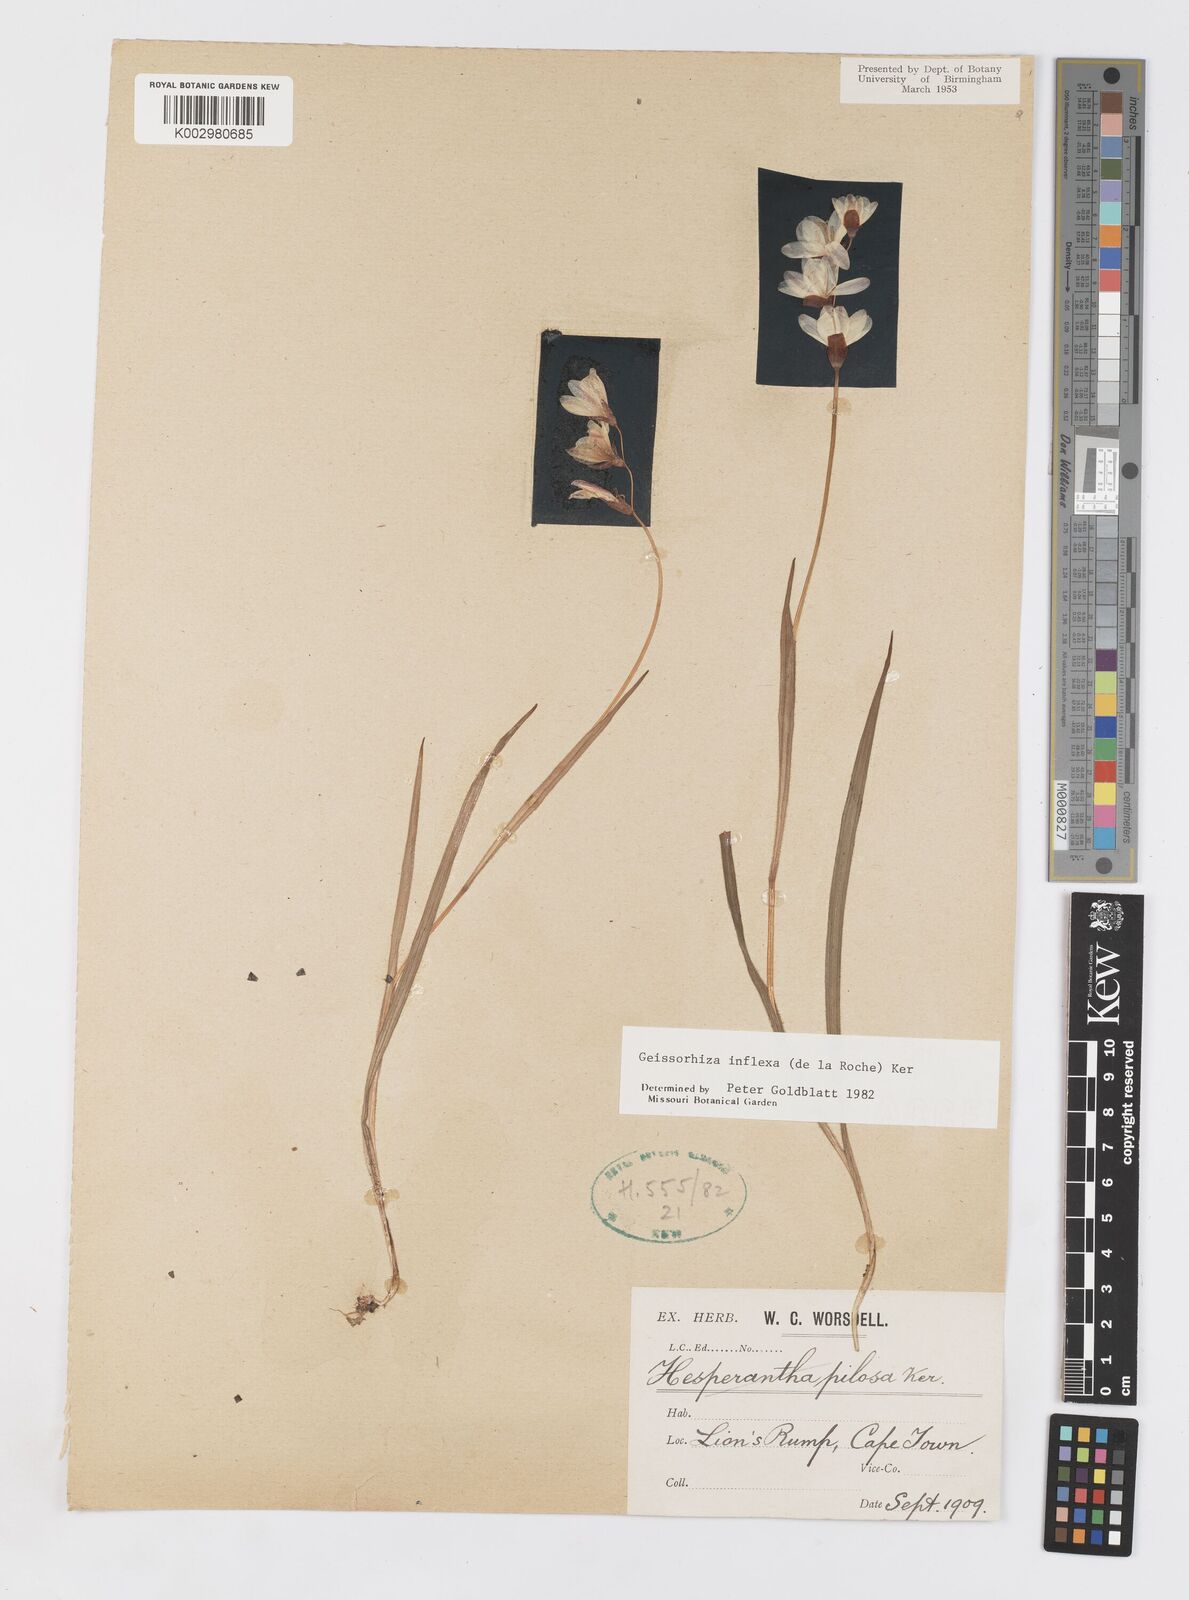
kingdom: Plantae
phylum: Tracheophyta
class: Liliopsida
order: Asparagales
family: Iridaceae
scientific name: Iridaceae
